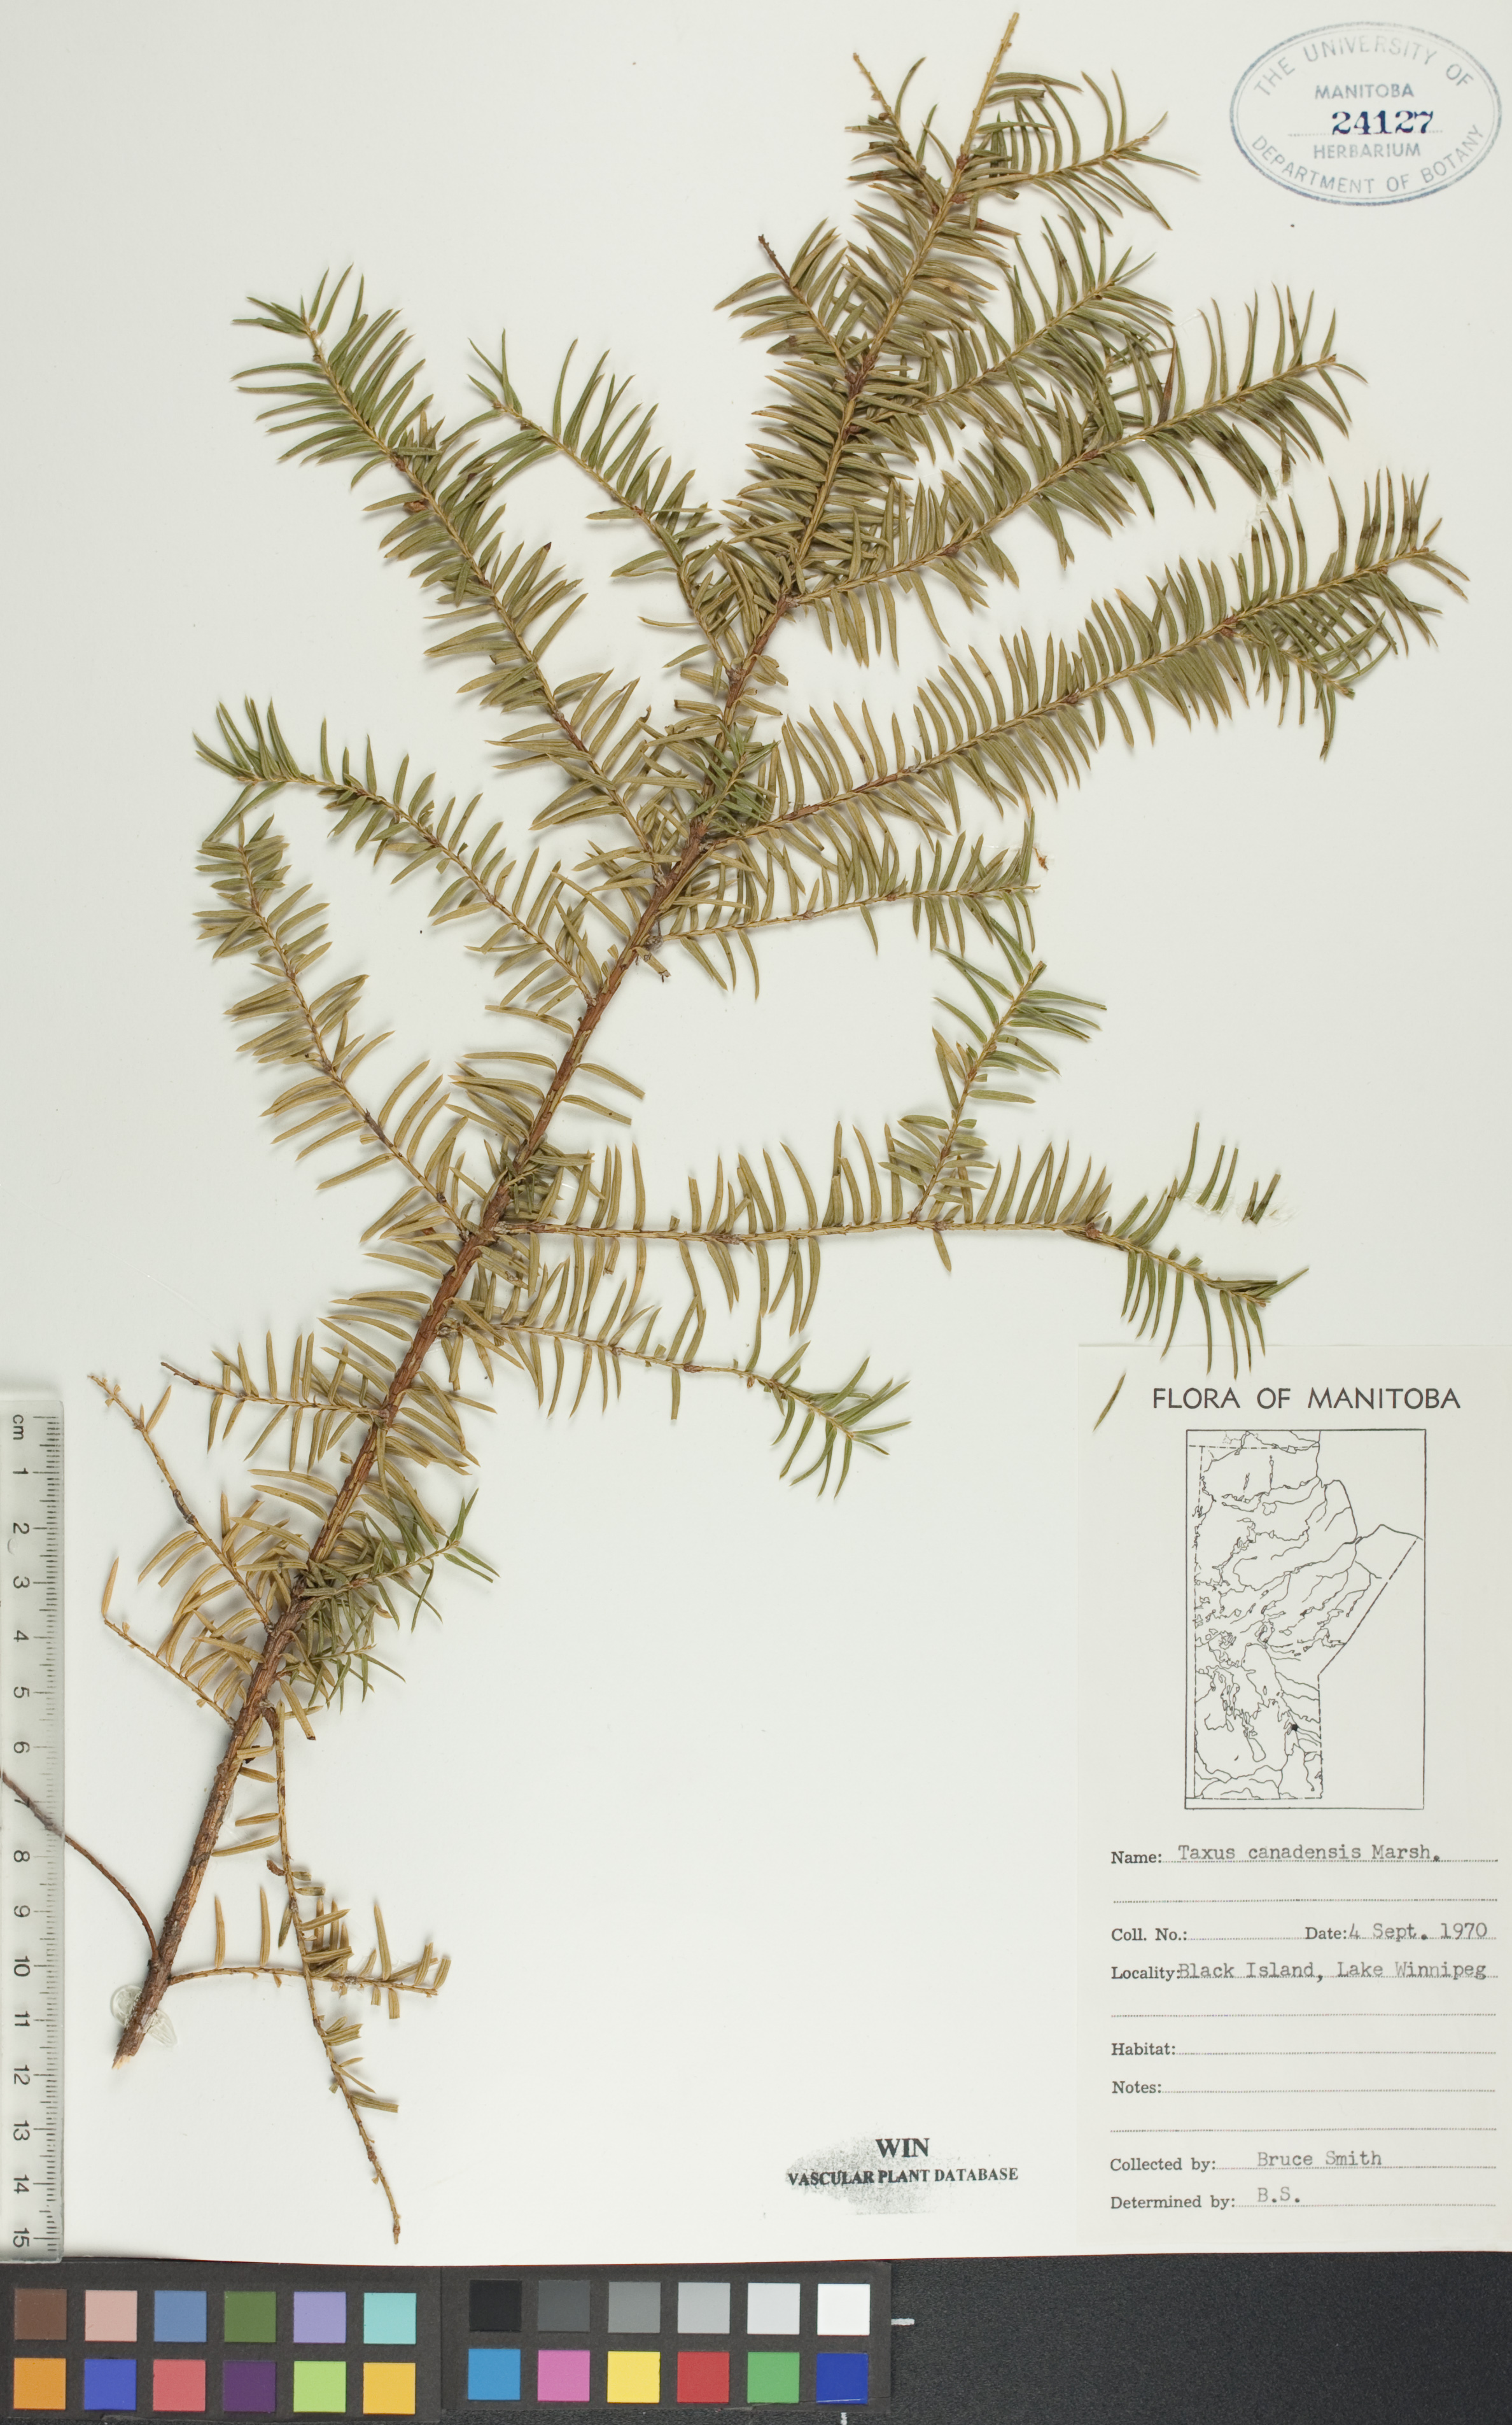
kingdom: Plantae
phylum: Tracheophyta
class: Pinopsida
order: Pinales
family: Taxaceae
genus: Taxus
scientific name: Taxus canadensis
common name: American yew
